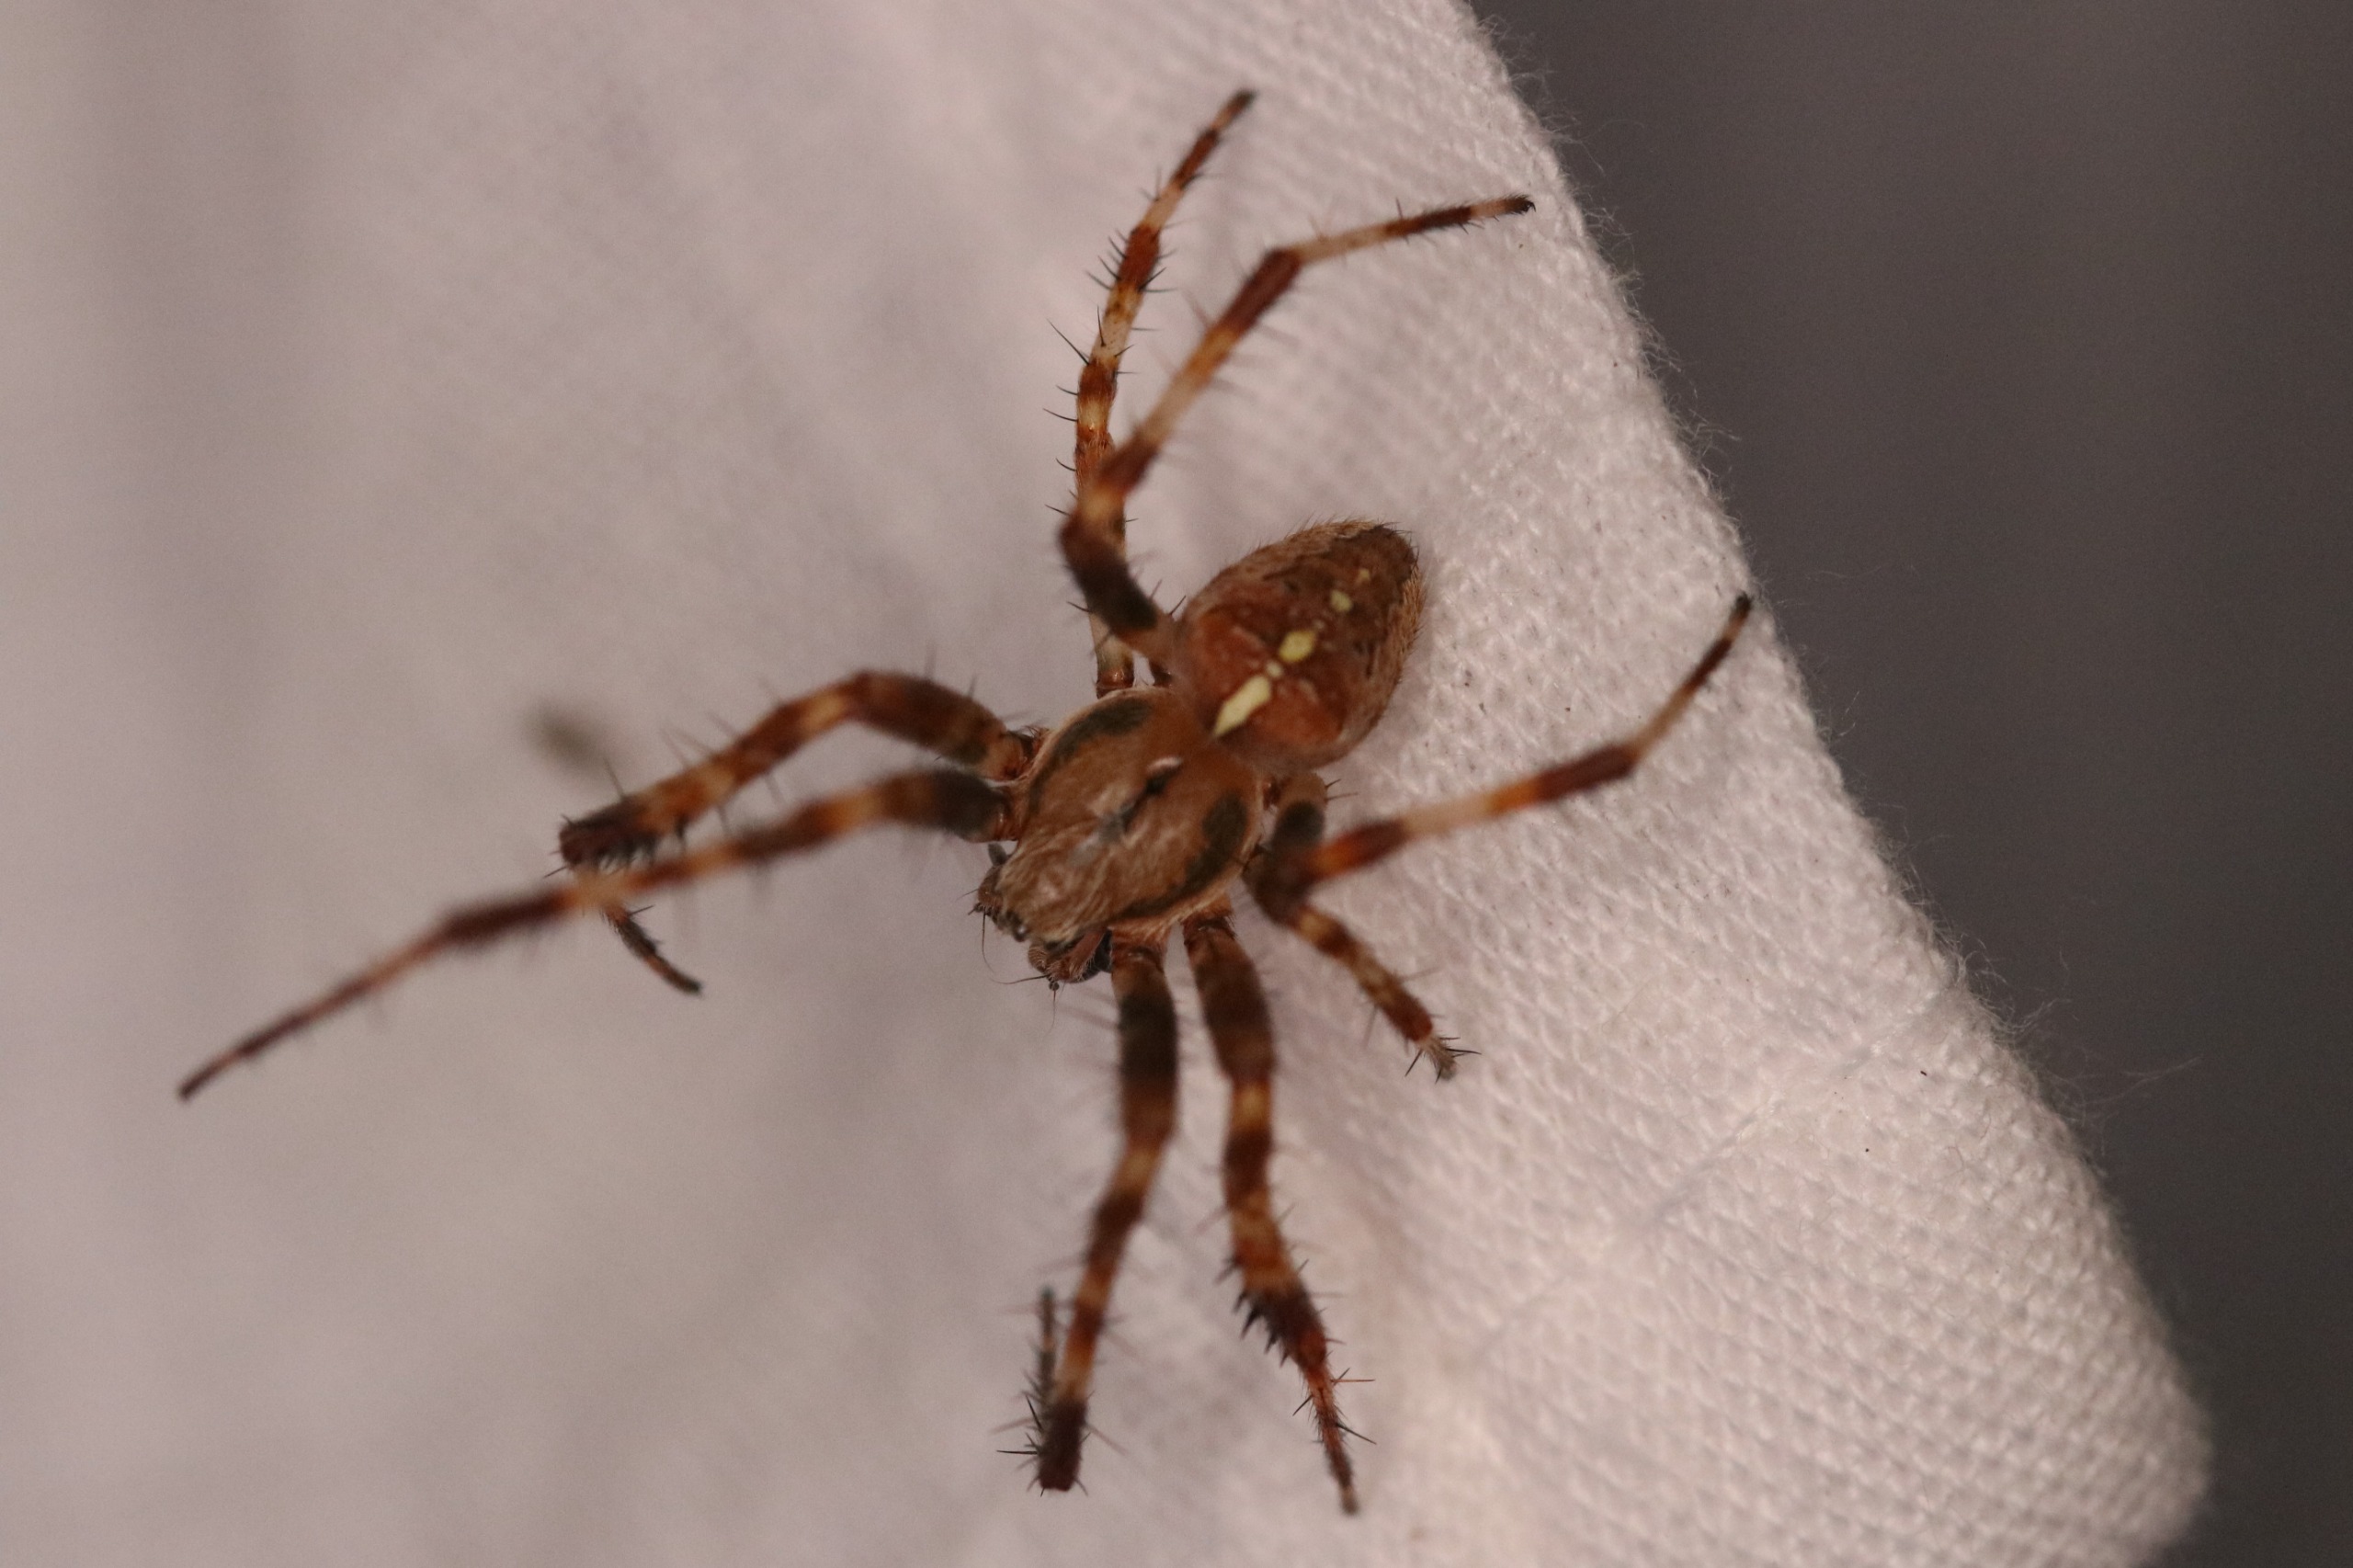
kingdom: Animalia
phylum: Arthropoda
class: Arachnida
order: Araneae
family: Araneidae
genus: Araneus
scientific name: Araneus diadematus
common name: Korsedderkop
